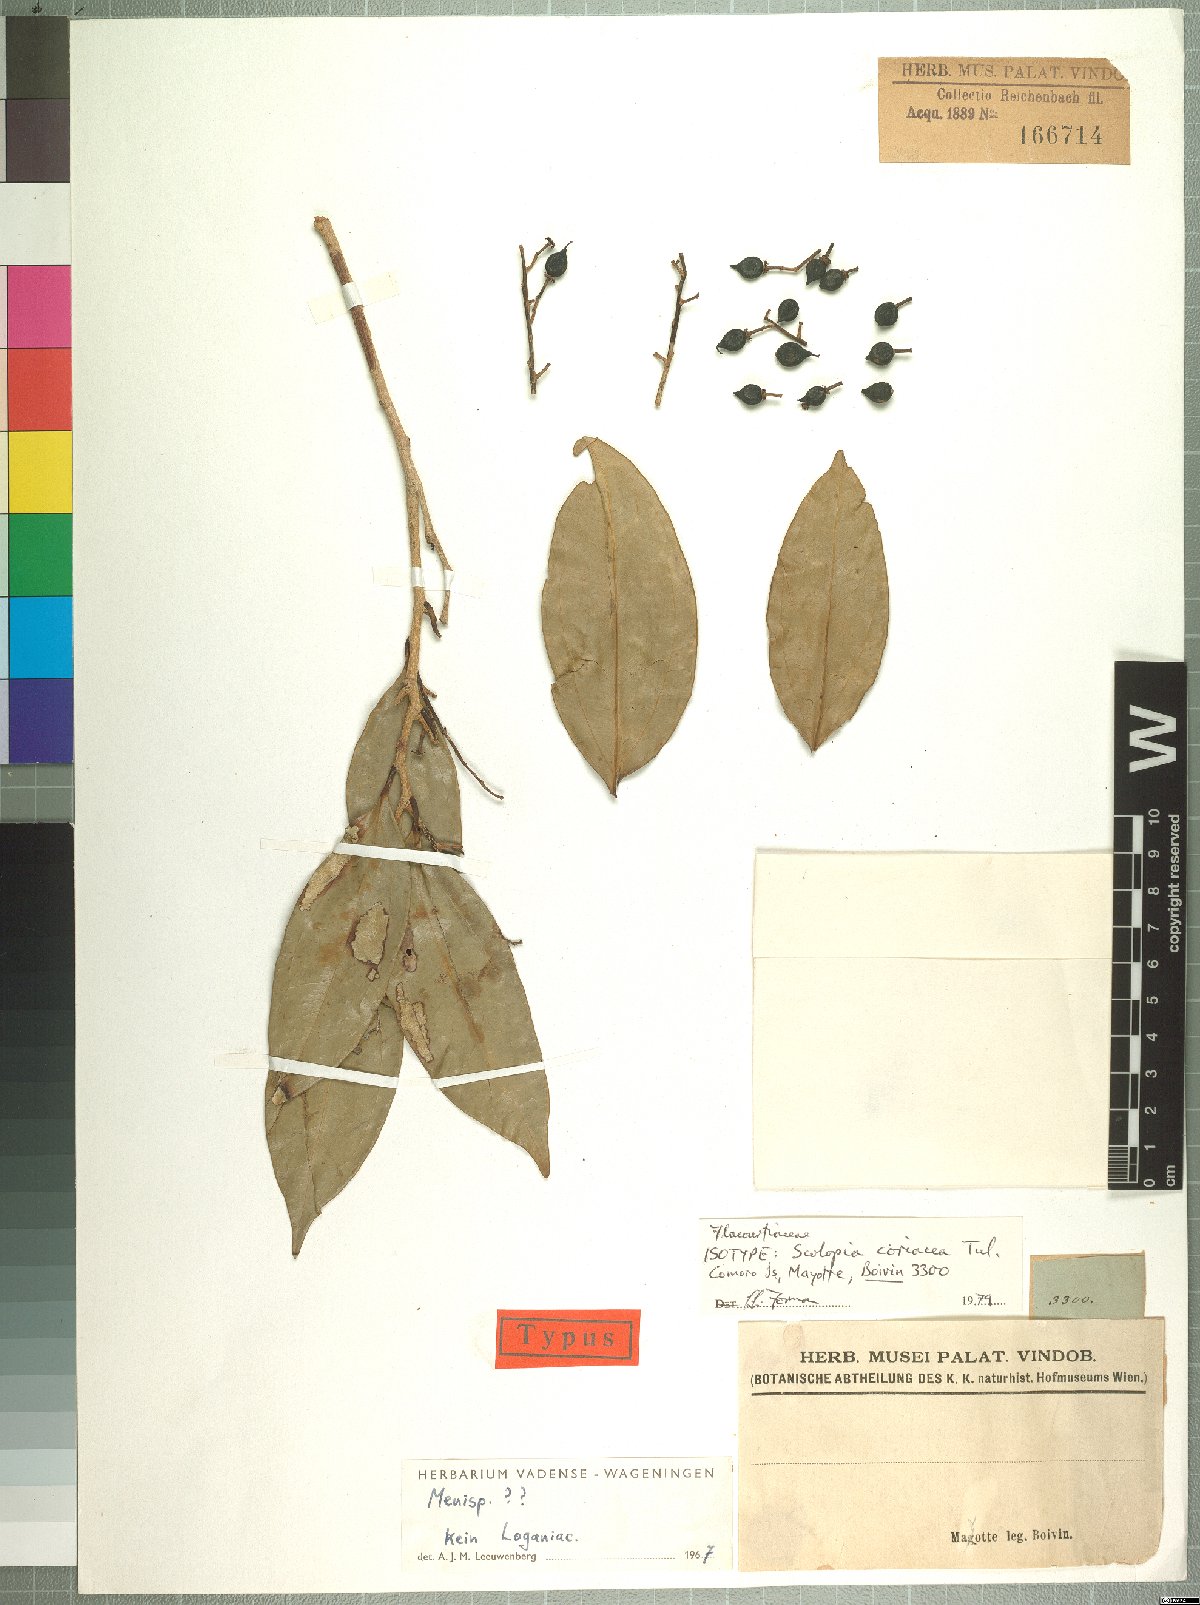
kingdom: Plantae
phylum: Tracheophyta
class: Magnoliopsida
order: Malpighiales
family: Salicaceae
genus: Scolopia
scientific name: Scolopia coriacea
